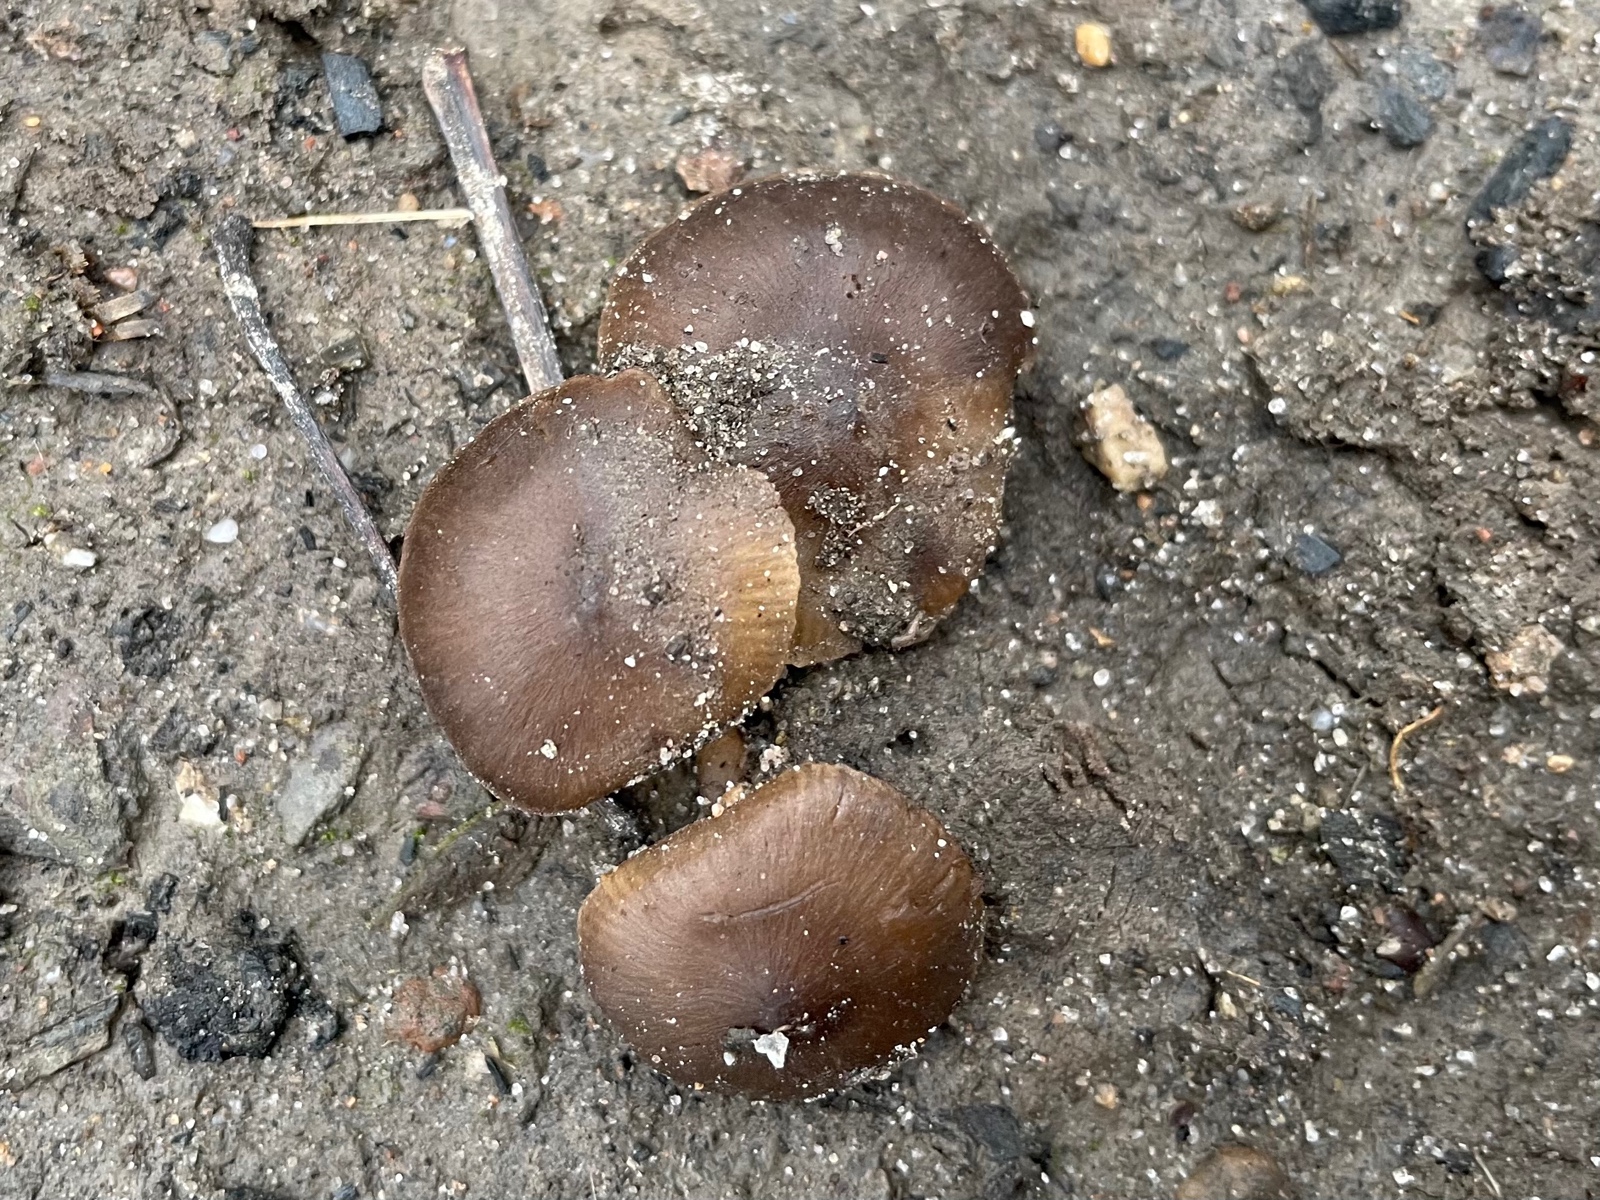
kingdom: Fungi
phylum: Basidiomycota
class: Agaricomycetes
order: Agaricales
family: Lyophyllaceae
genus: Tephrocybe
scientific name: Tephrocybe
